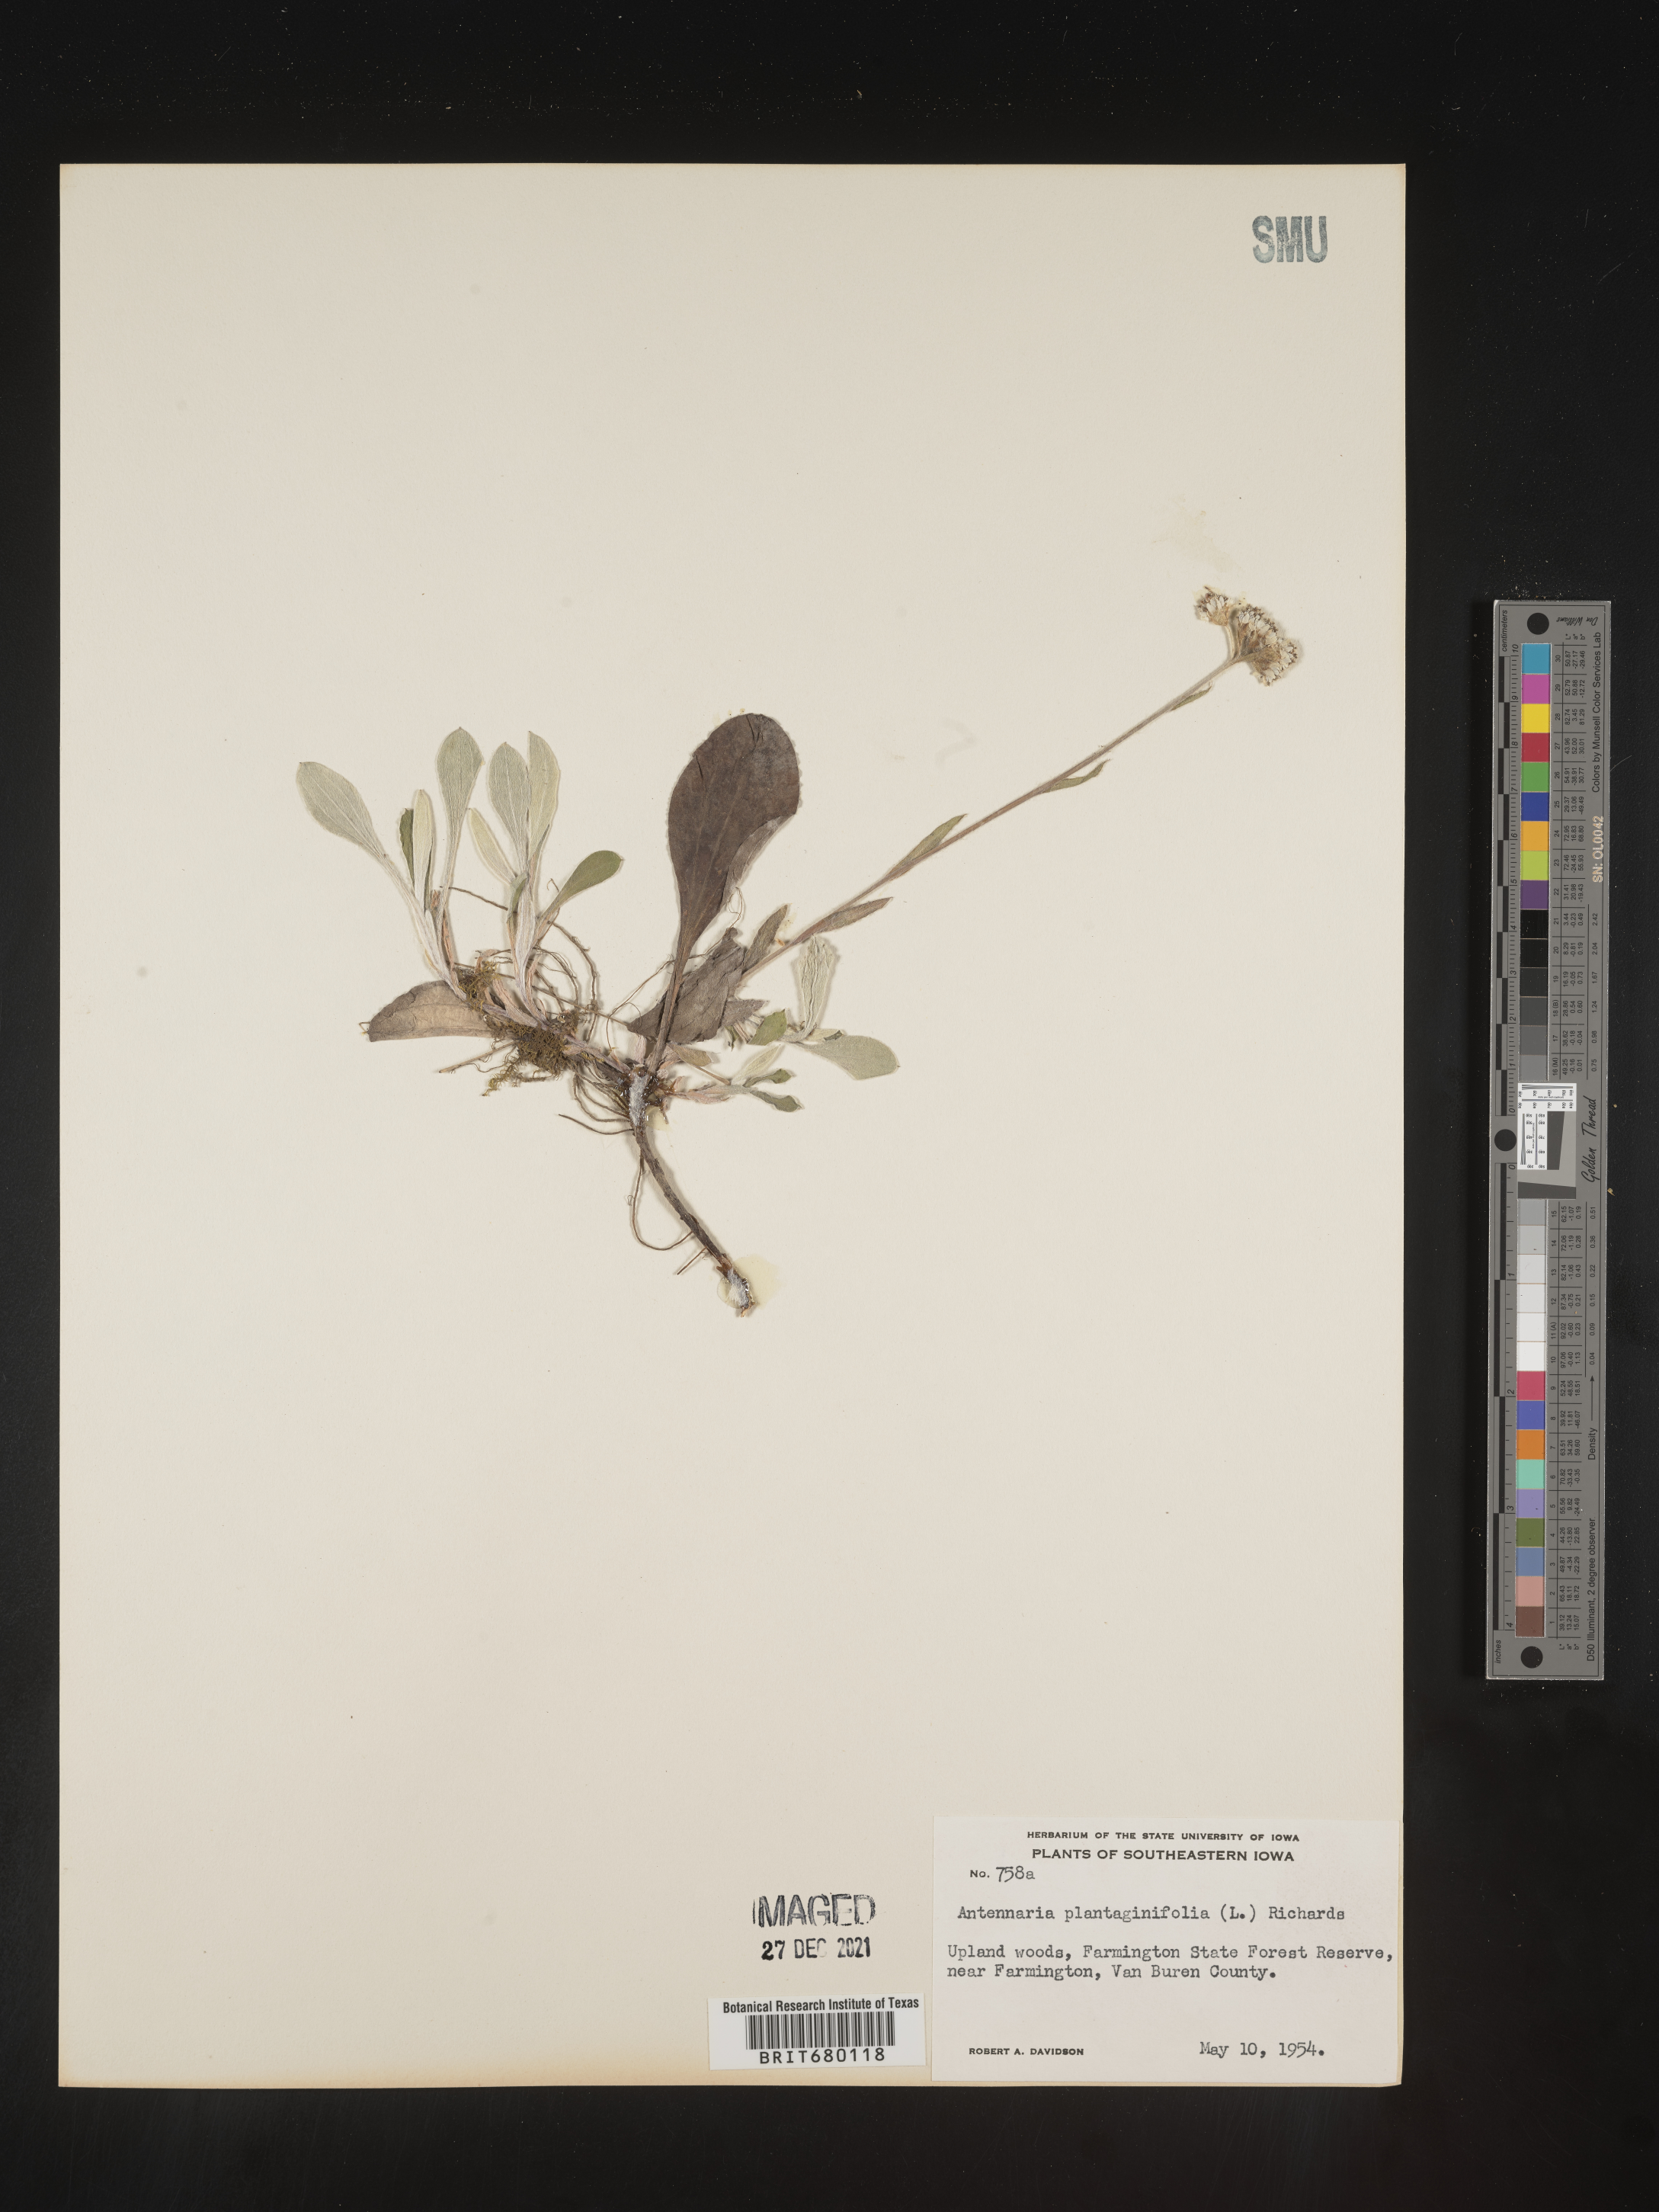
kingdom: Plantae
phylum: Tracheophyta
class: Magnoliopsida
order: Asterales
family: Asteraceae
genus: Antennaria
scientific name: Antennaria plantaginifolia
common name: Plantain-leaved pussytoes
